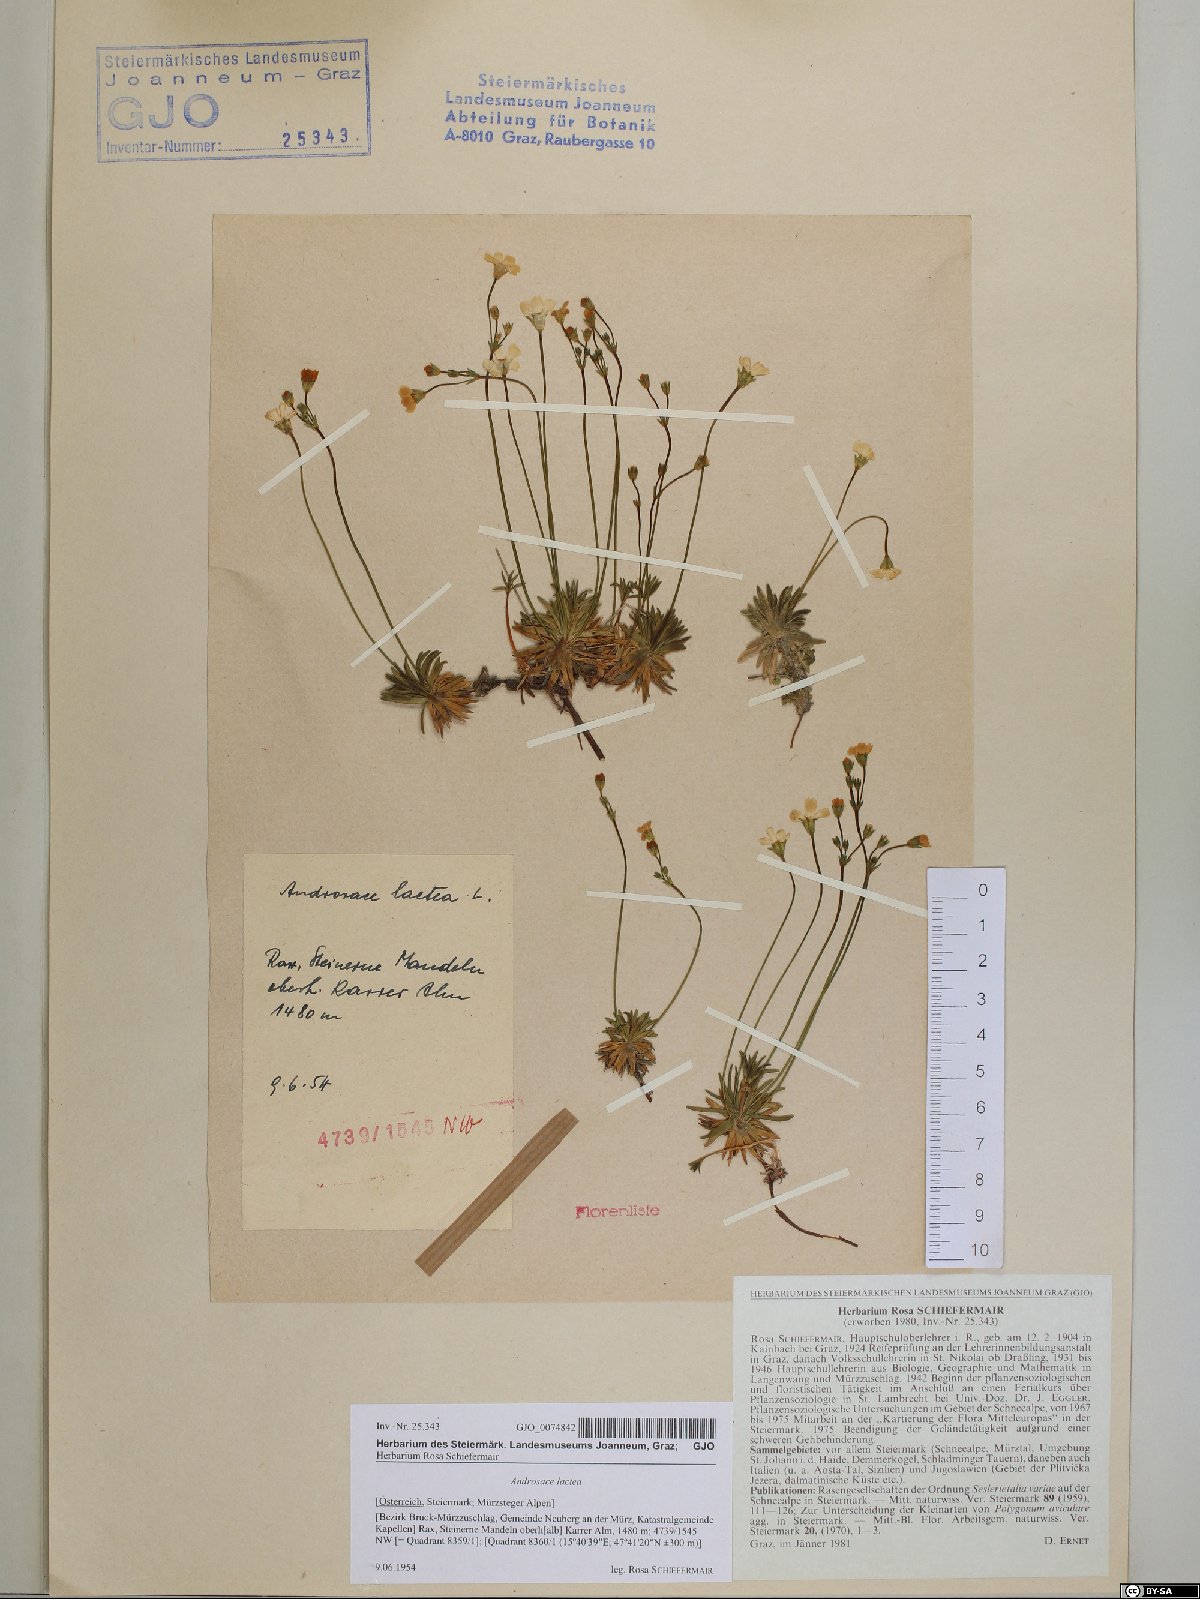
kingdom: Plantae
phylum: Tracheophyta
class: Magnoliopsida
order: Ericales
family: Primulaceae
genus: Androsace
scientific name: Androsace lactea
